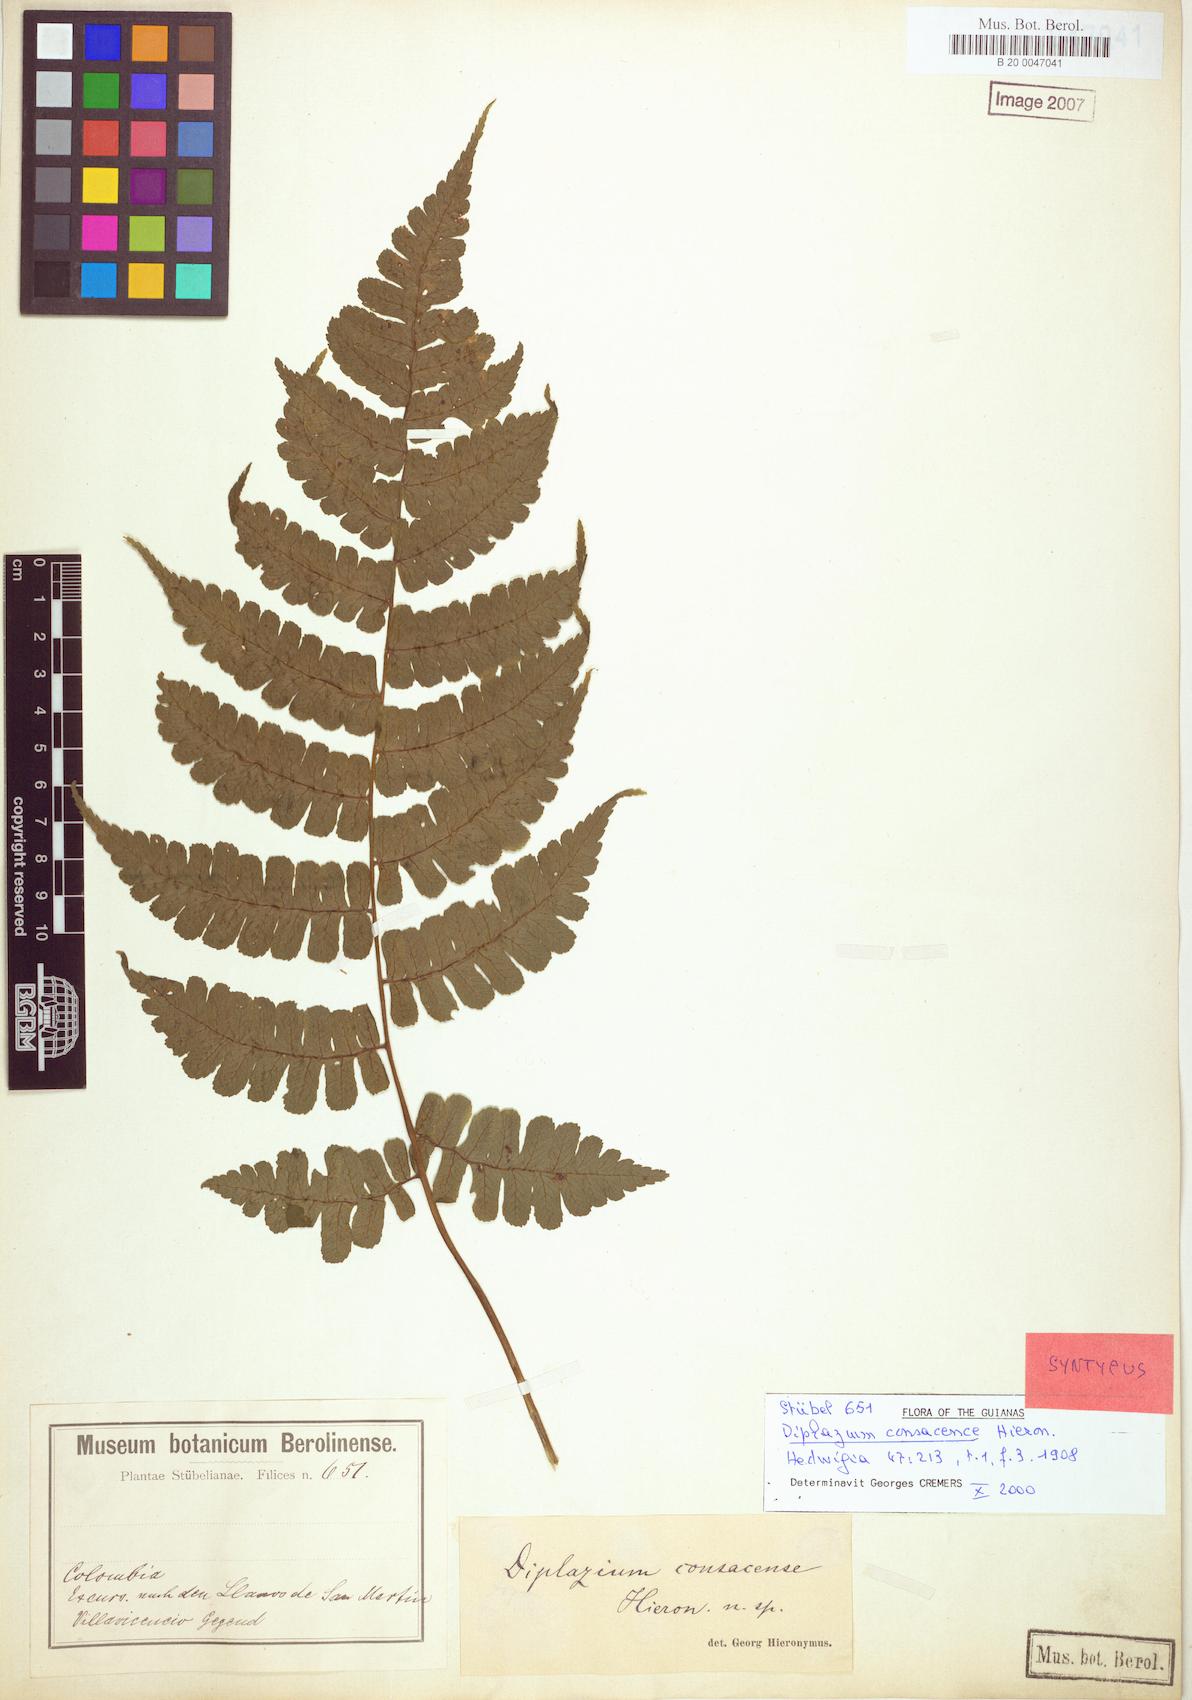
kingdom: Plantae
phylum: Tracheophyta
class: Polypodiopsida
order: Polypodiales
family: Athyriaceae
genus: Diplazium
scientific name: Diplazium consacense
